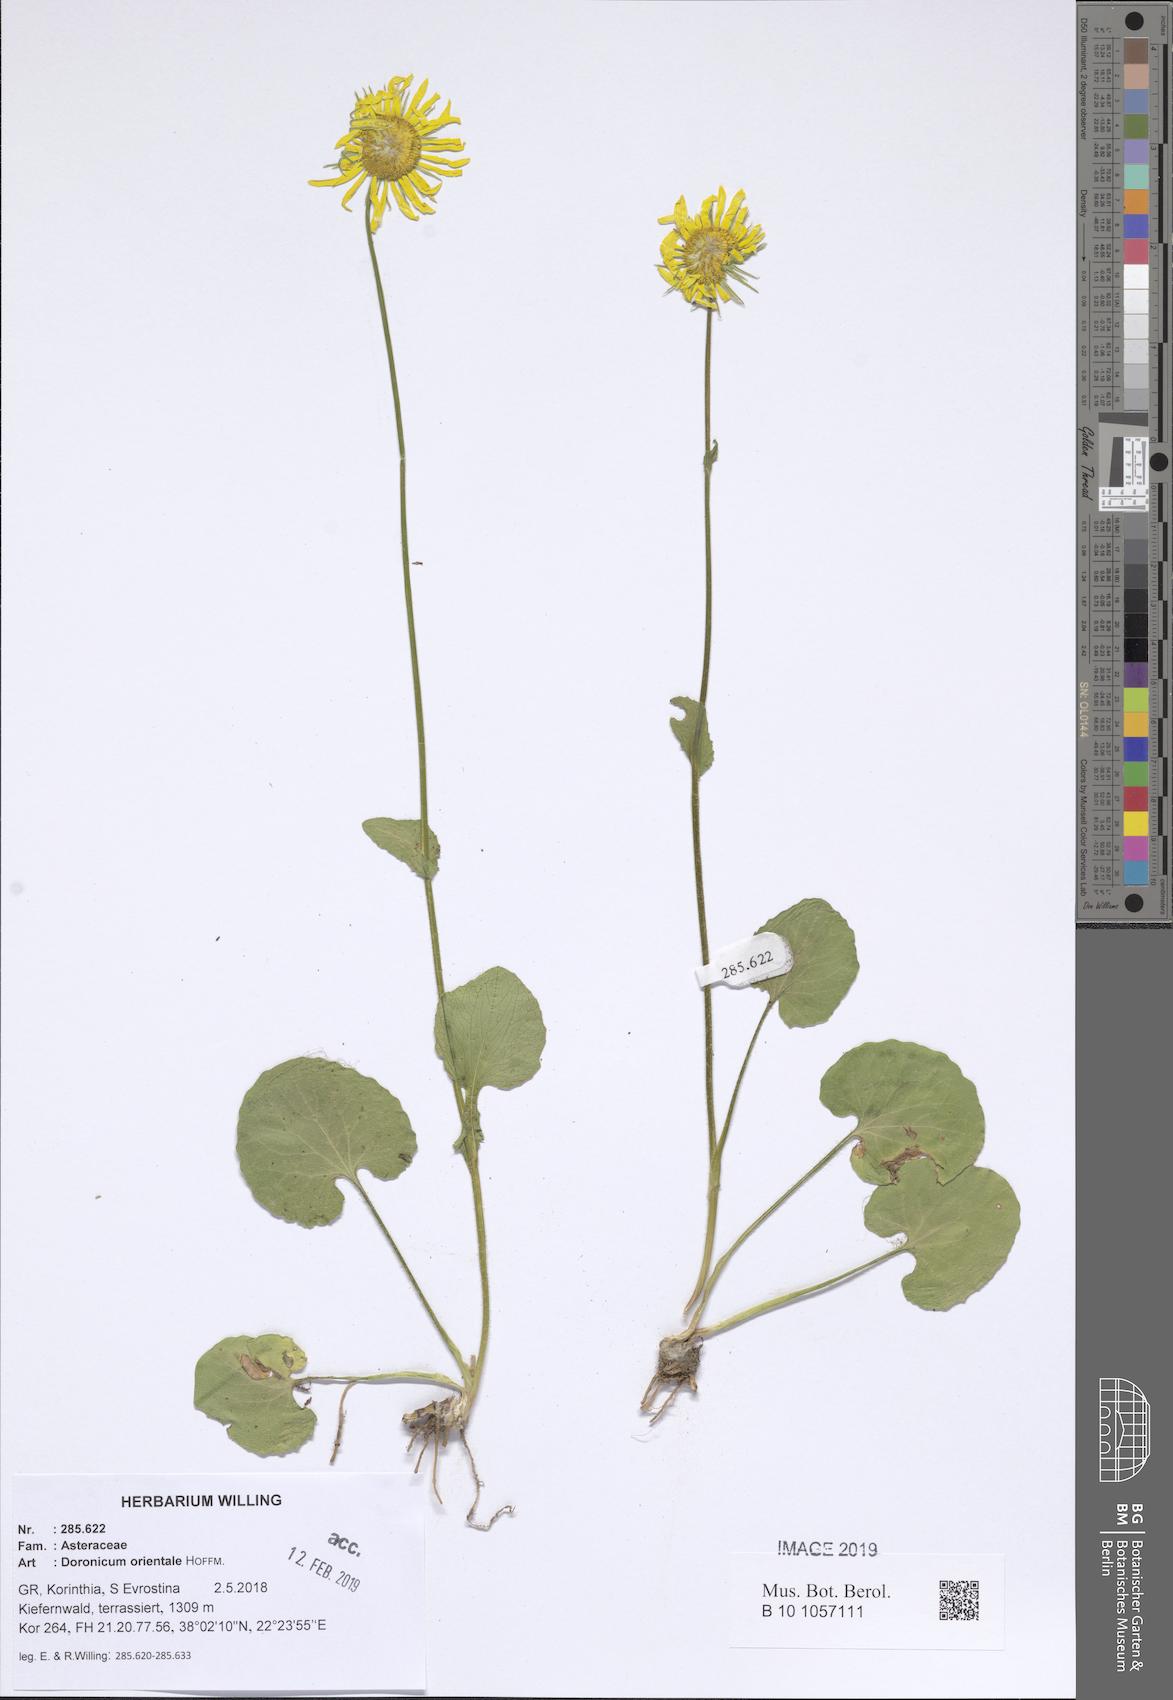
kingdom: Plantae
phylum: Tracheophyta
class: Magnoliopsida
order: Asterales
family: Asteraceae
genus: Doronicum
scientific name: Doronicum orientale
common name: Oriental leopard's-bane
